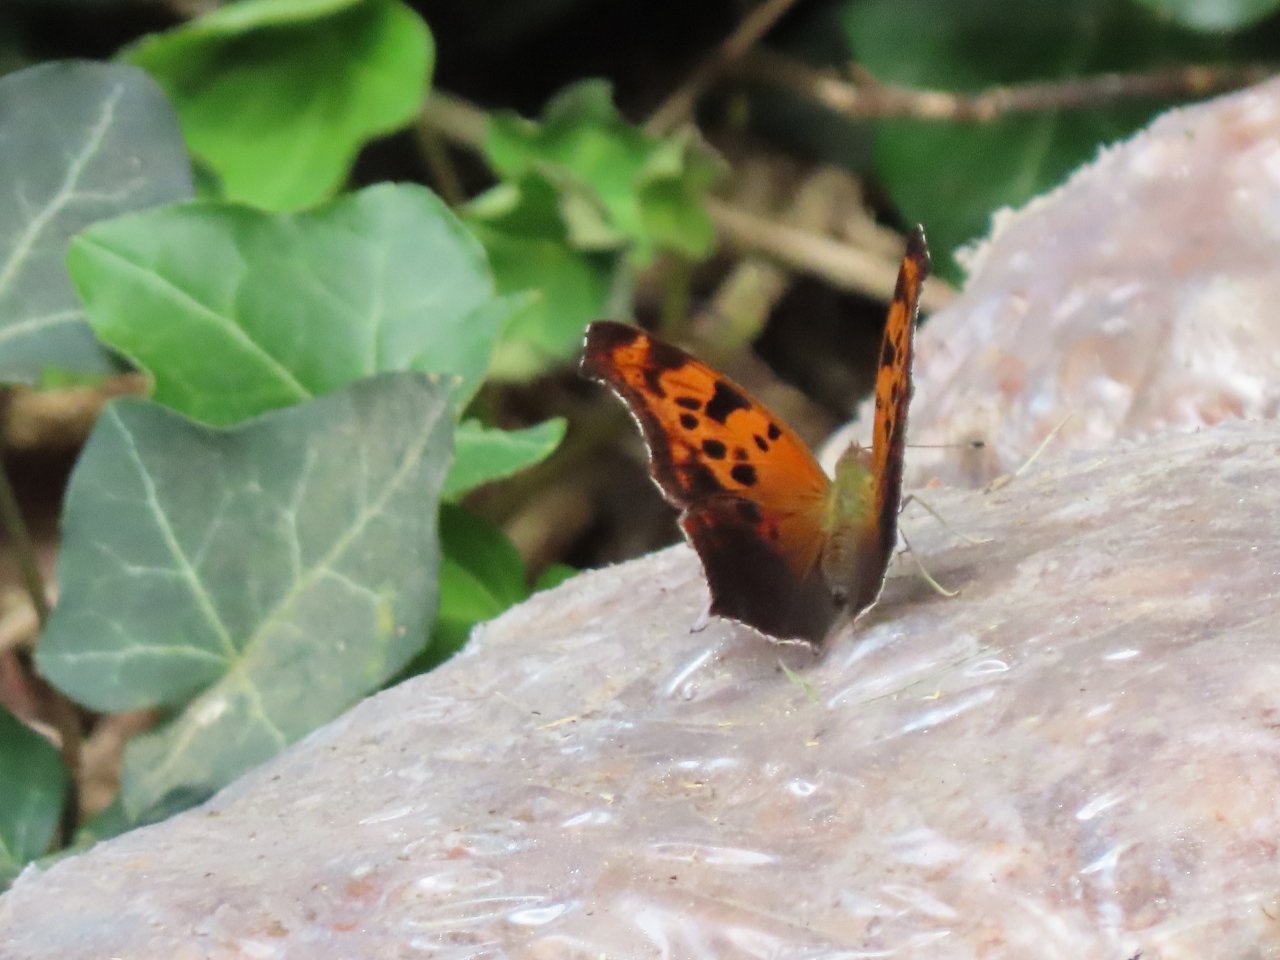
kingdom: Animalia
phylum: Arthropoda
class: Insecta
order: Lepidoptera
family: Nymphalidae
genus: Polygonia
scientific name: Polygonia interrogationis
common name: Question Mark
